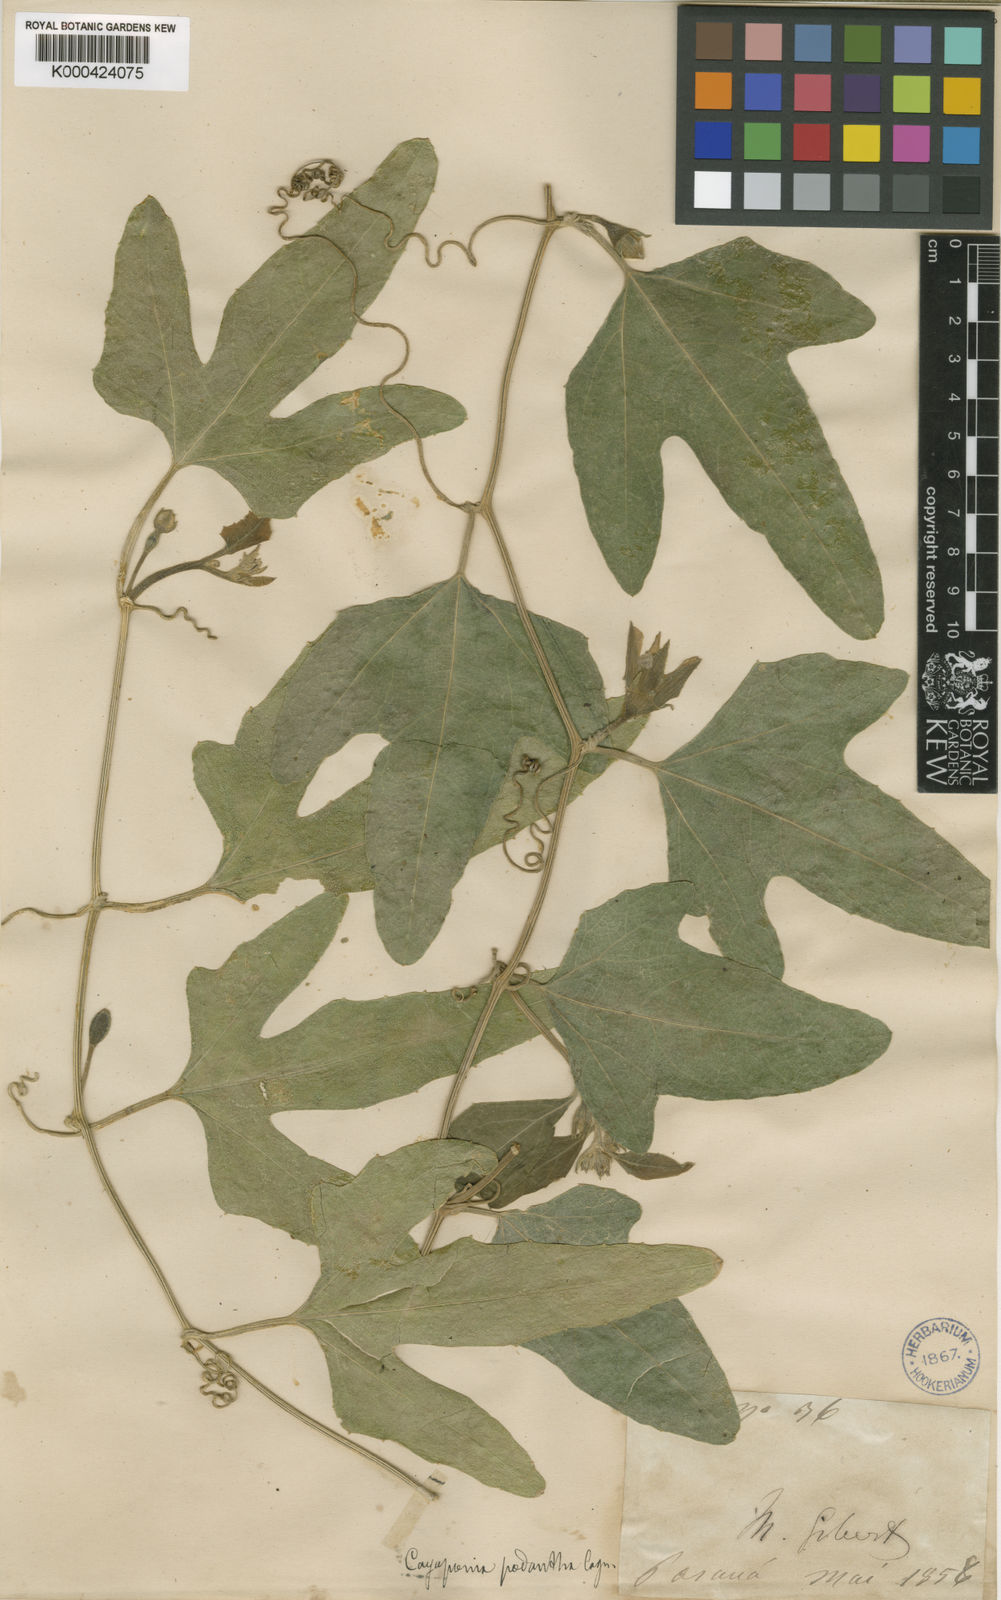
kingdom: Plantae
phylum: Tracheophyta
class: Magnoliopsida
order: Cucurbitales
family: Cucurbitaceae
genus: Cayaponia
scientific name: Cayaponia podantha
